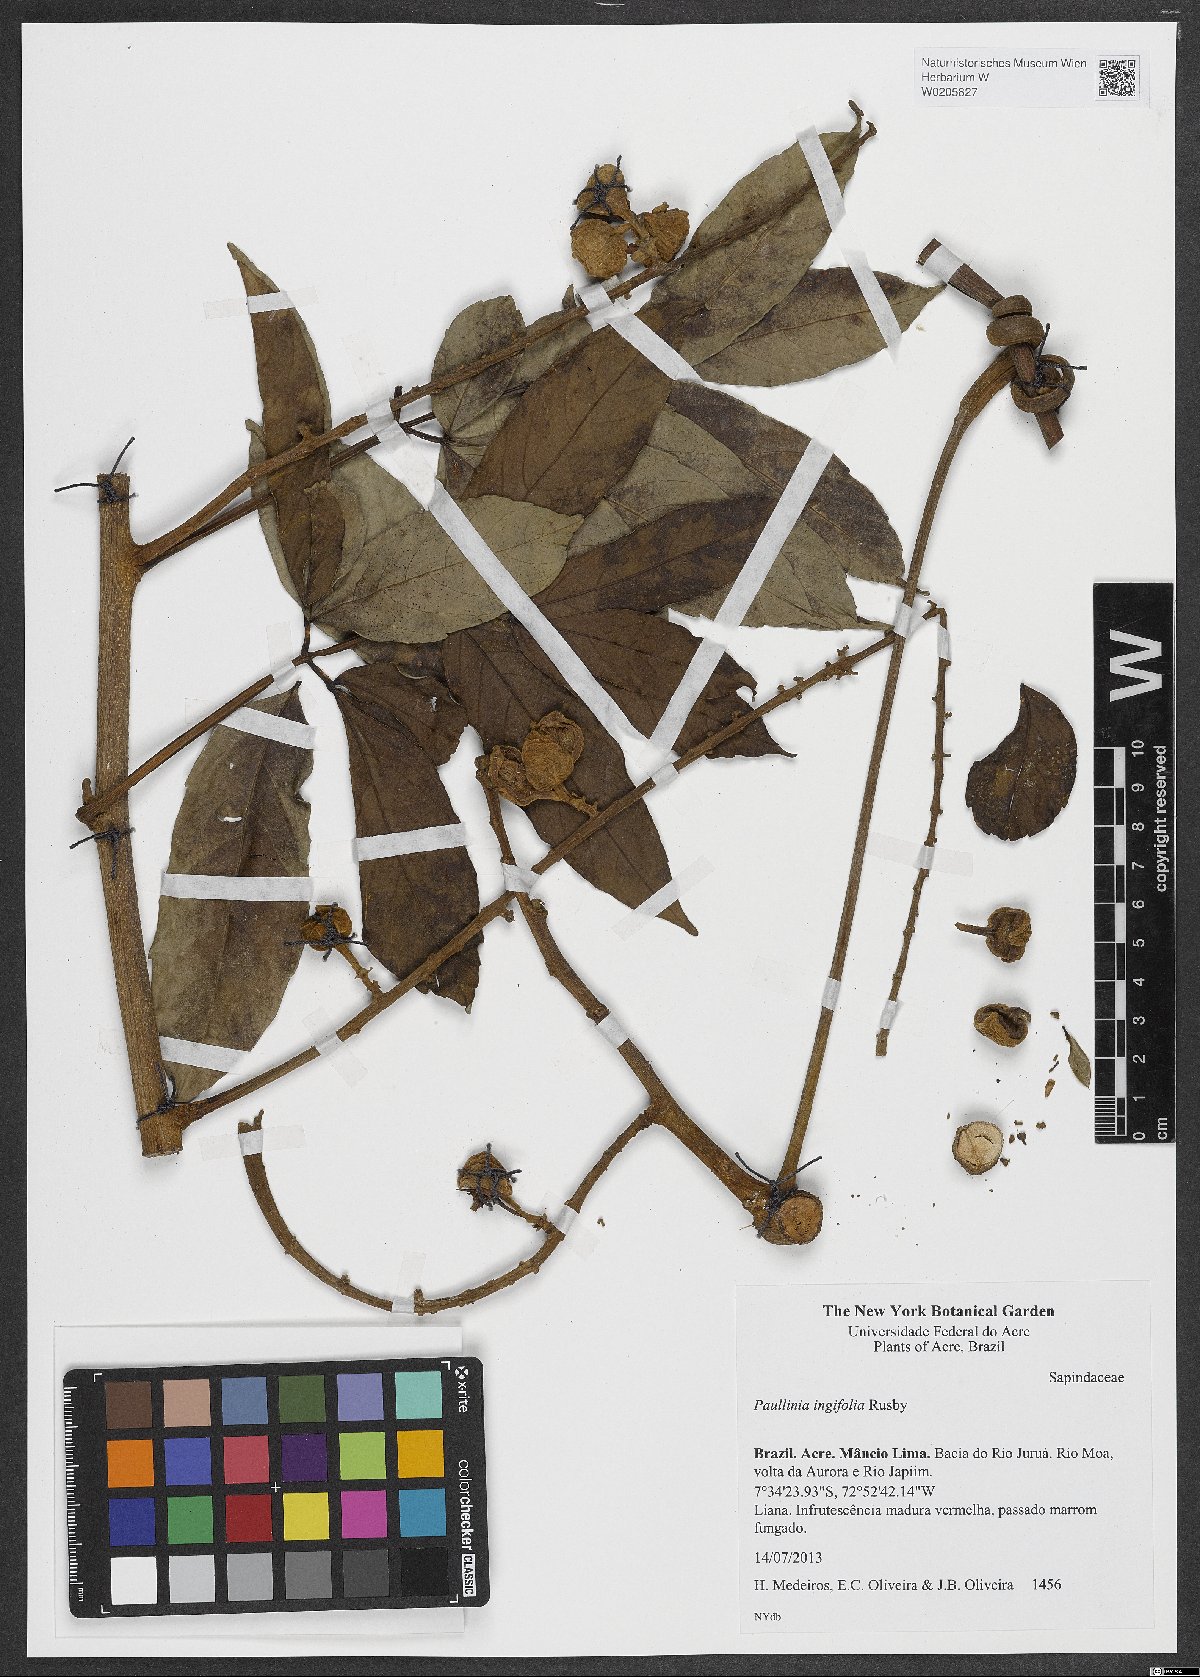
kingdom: Plantae
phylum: Tracheophyta
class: Magnoliopsida
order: Sapindales
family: Sapindaceae
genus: Paullinia
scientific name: Paullinia ingifolia
